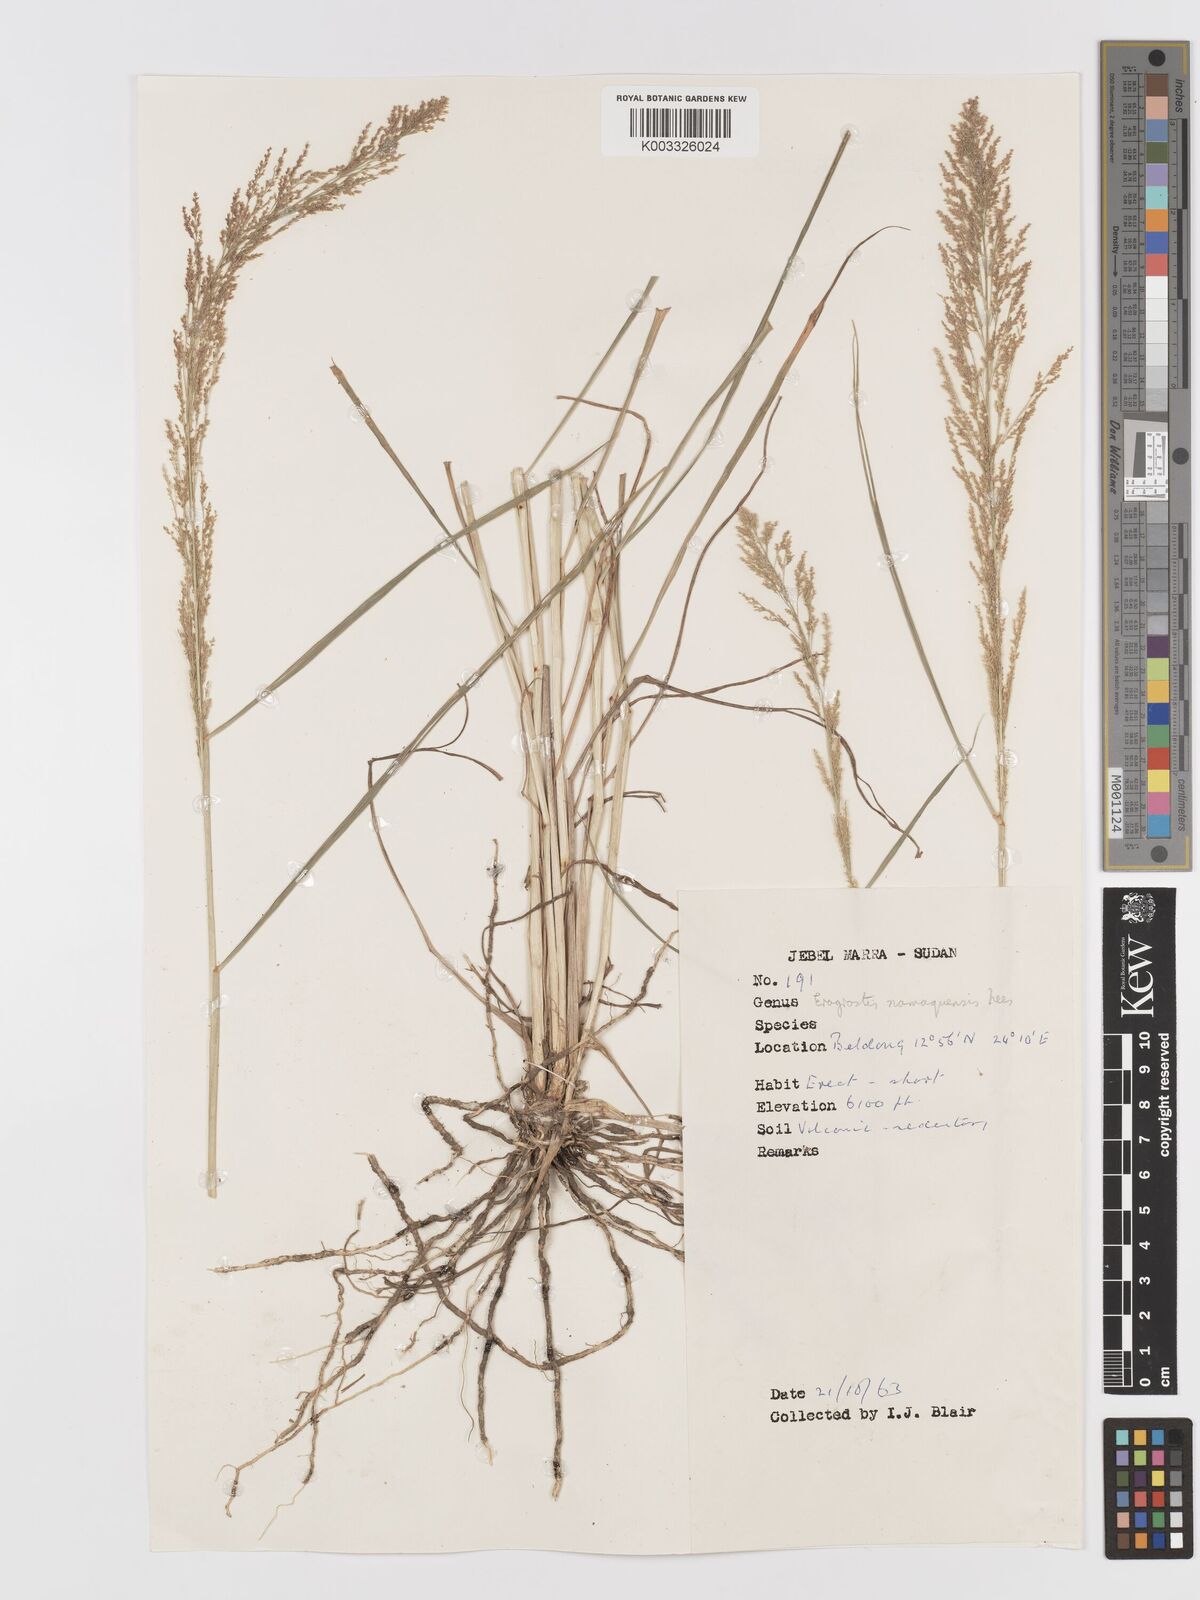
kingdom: Plantae
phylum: Tracheophyta
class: Liliopsida
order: Poales
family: Poaceae
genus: Eragrostis
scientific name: Eragrostis japonica
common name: Pond lovegrass
